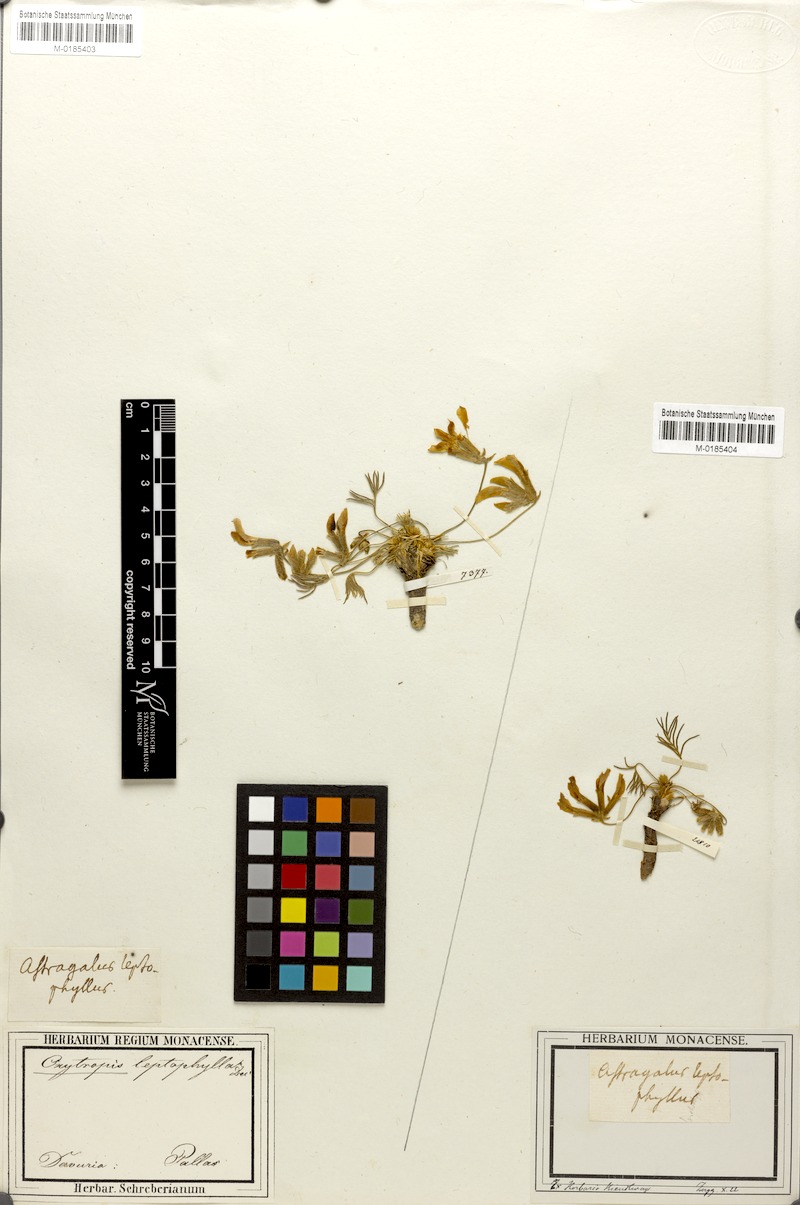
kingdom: Plantae
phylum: Tracheophyta
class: Magnoliopsida
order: Fabales
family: Fabaceae
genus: Oxytropis
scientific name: Oxytropis leptophylla
